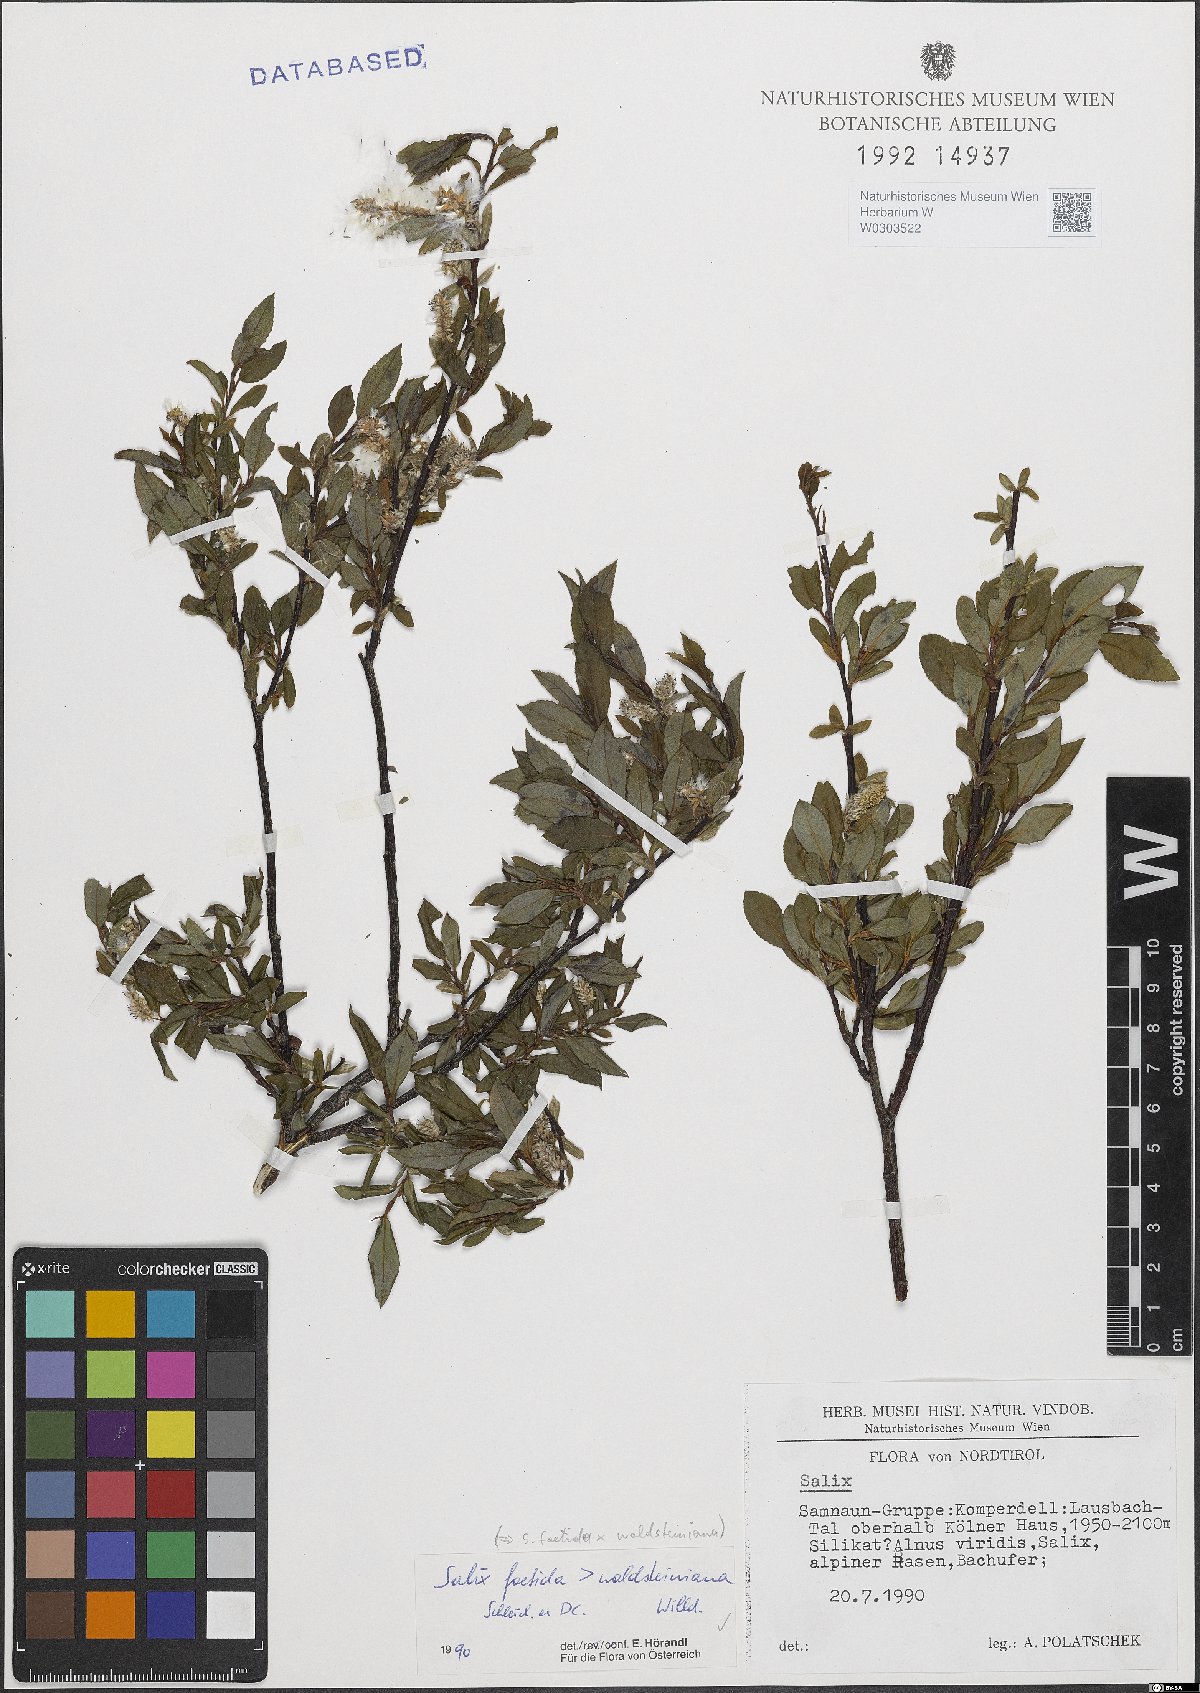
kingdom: Plantae
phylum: Tracheophyta
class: Magnoliopsida
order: Malpighiales
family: Salicaceae
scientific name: Salicaceae
